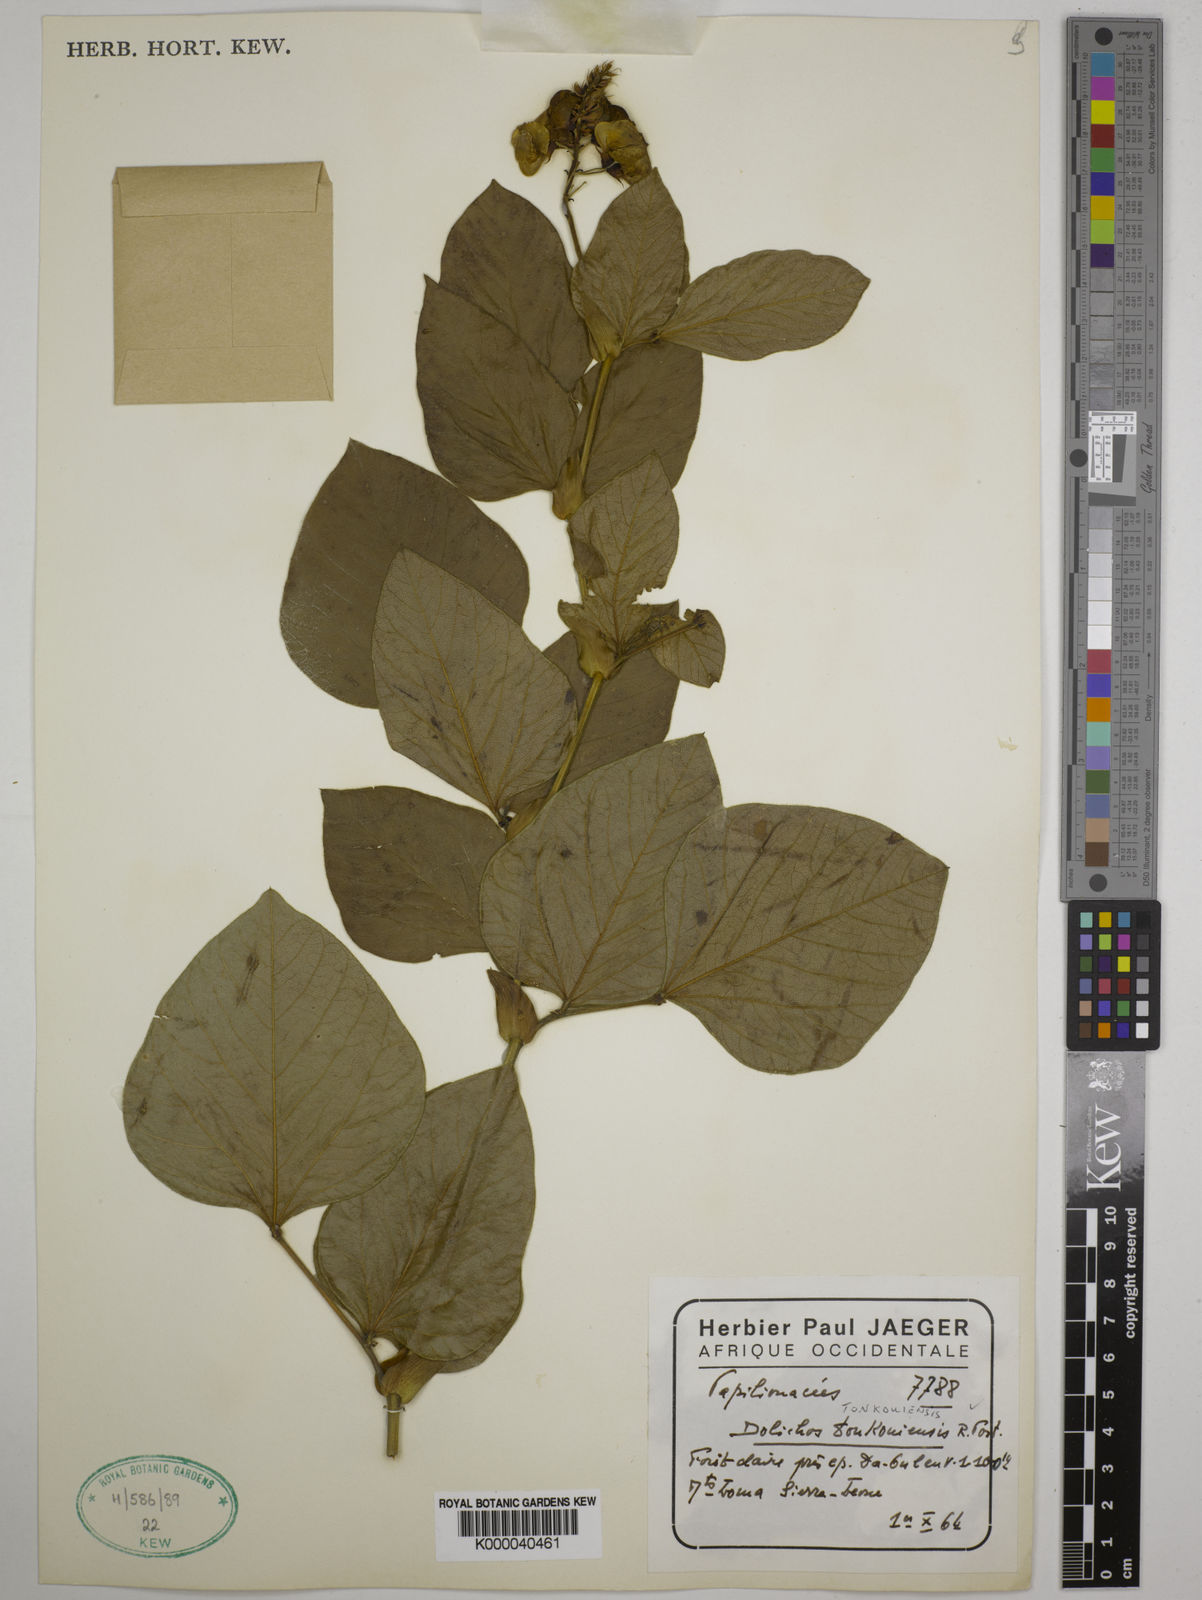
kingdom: Plantae
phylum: Tracheophyta
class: Magnoliopsida
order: Fabales
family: Fabaceae
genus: Dolichos
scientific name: Dolichos tonkouiensis
